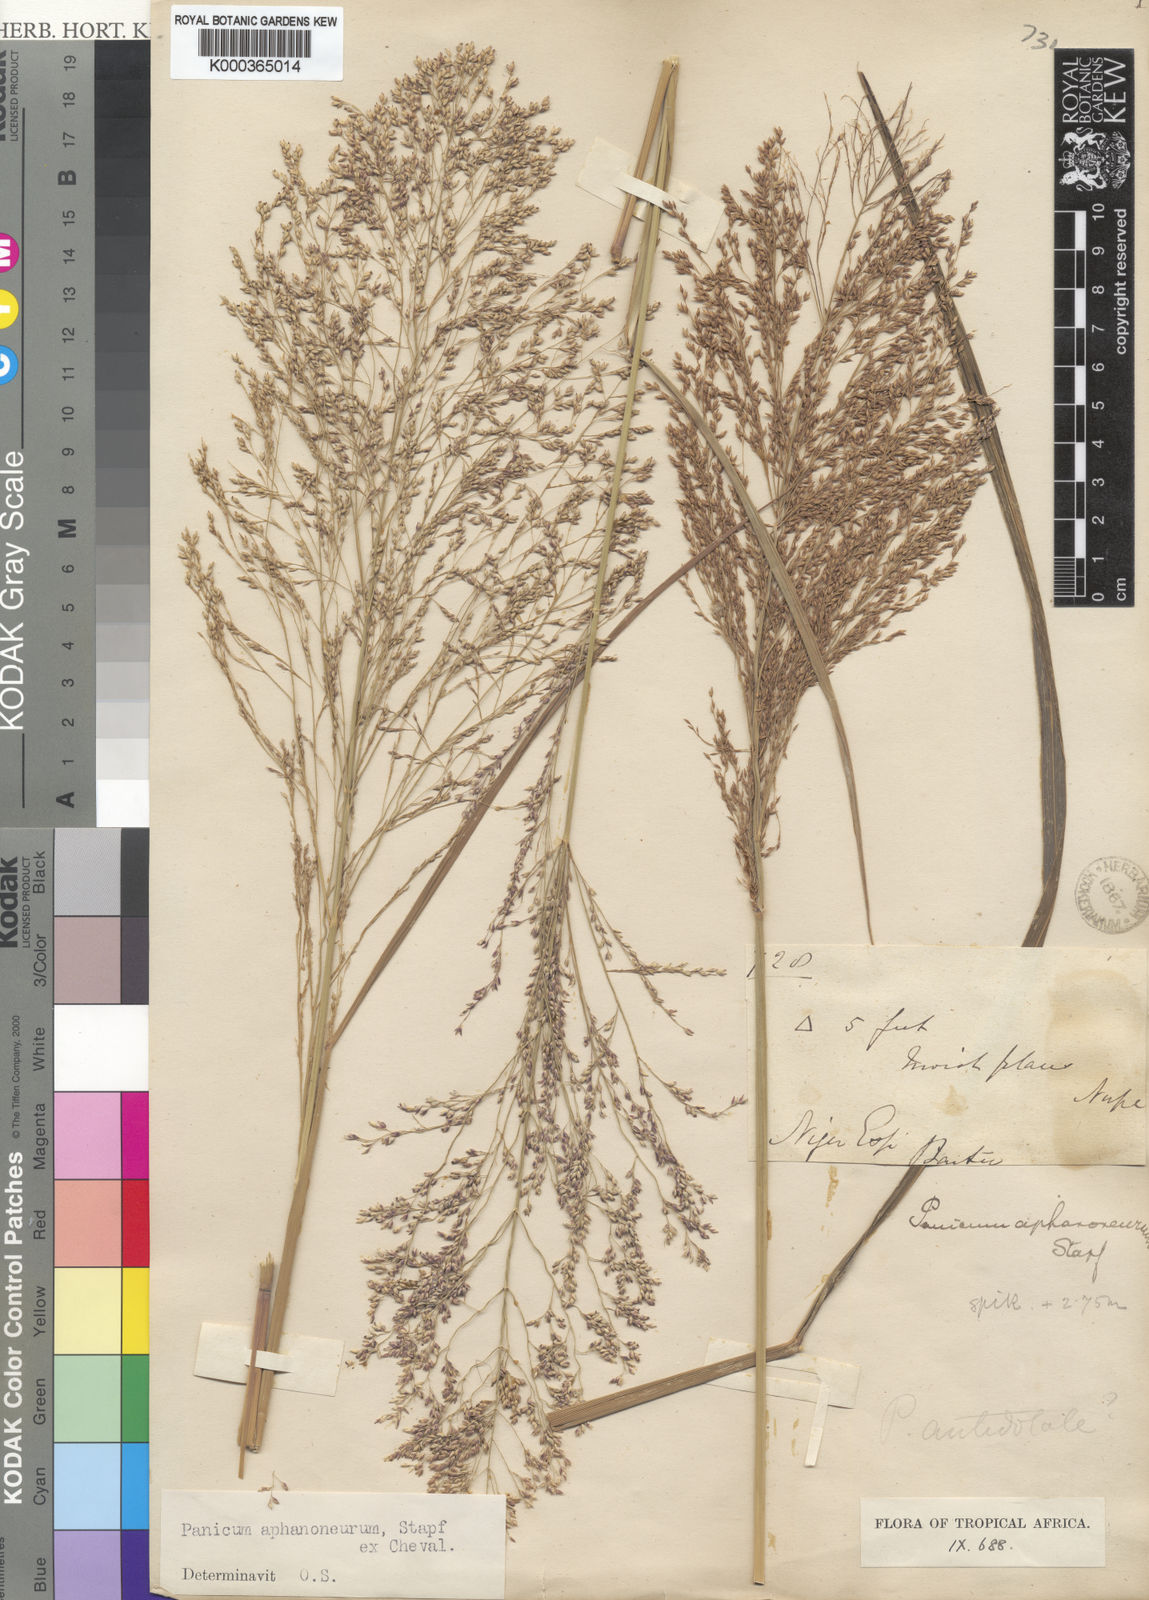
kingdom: Plantae
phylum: Tracheophyta
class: Liliopsida
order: Poales
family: Poaceae
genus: Panicum
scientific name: Panicum fluviicola
